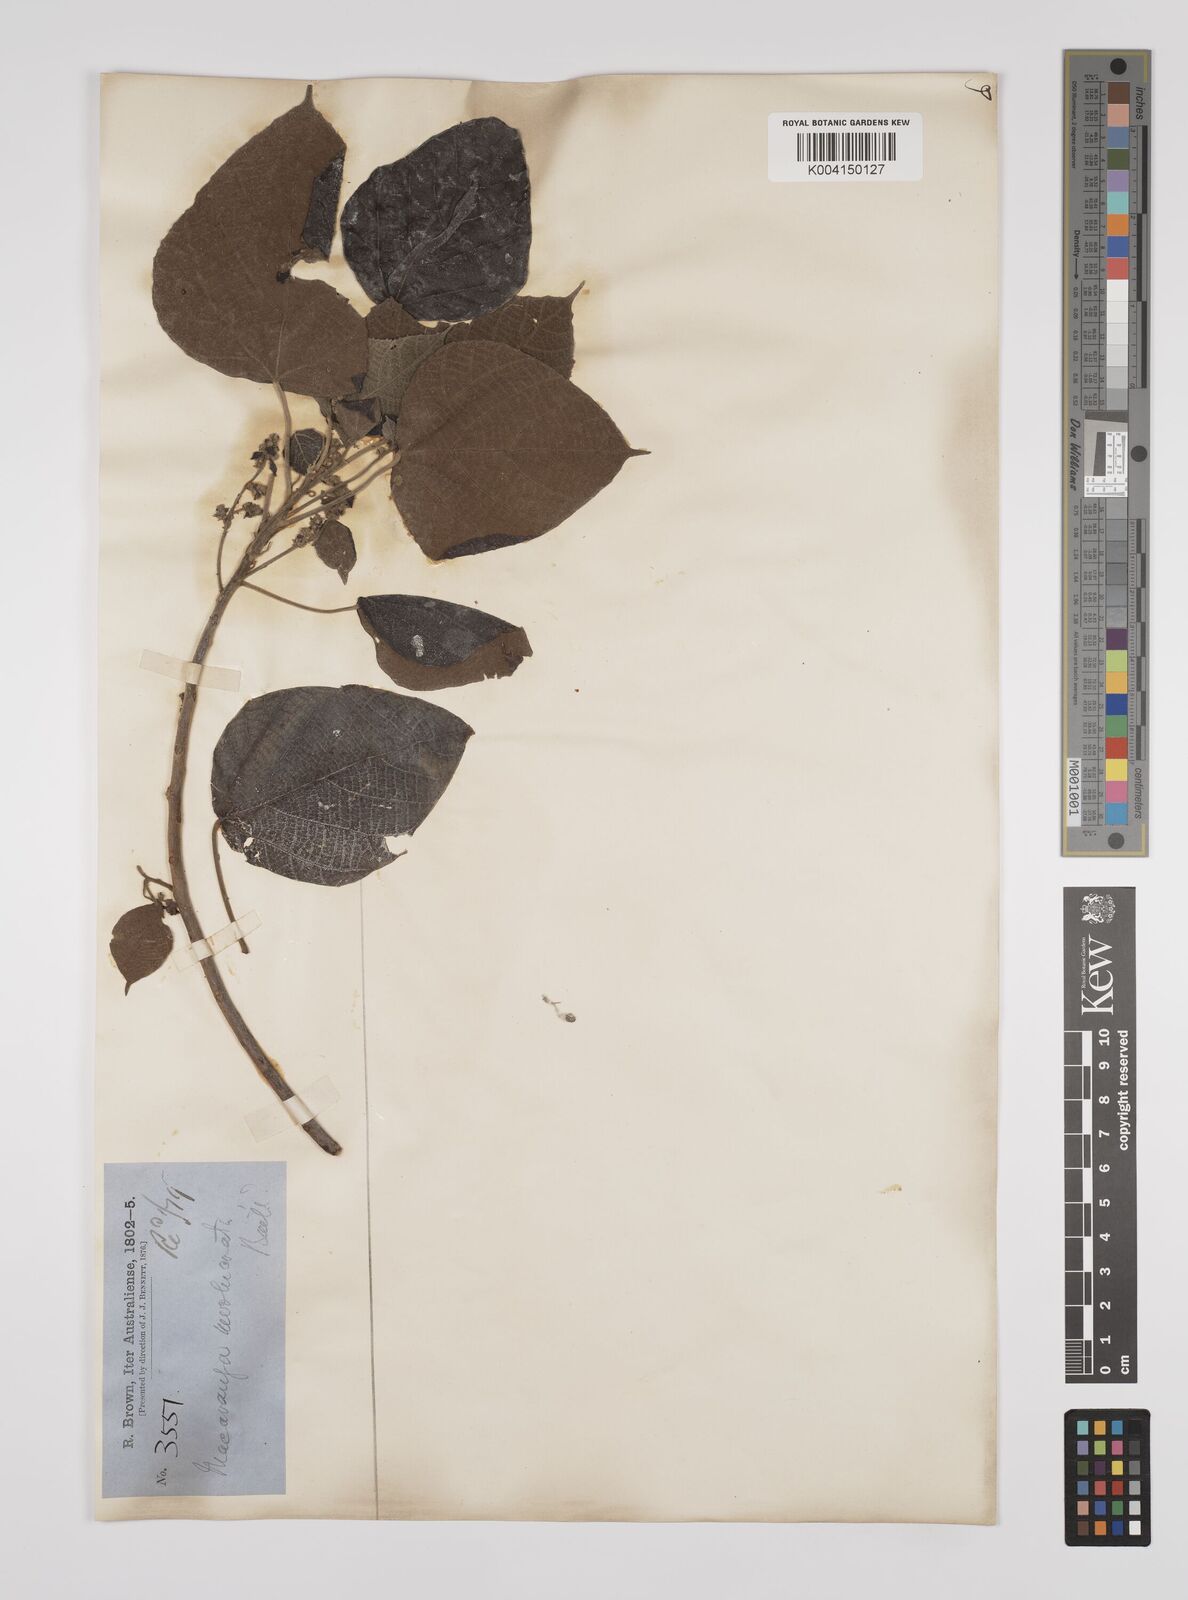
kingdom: Plantae
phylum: Tracheophyta
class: Magnoliopsida
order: Malpighiales
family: Euphorbiaceae
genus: Macaranga
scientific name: Macaranga involucrata
